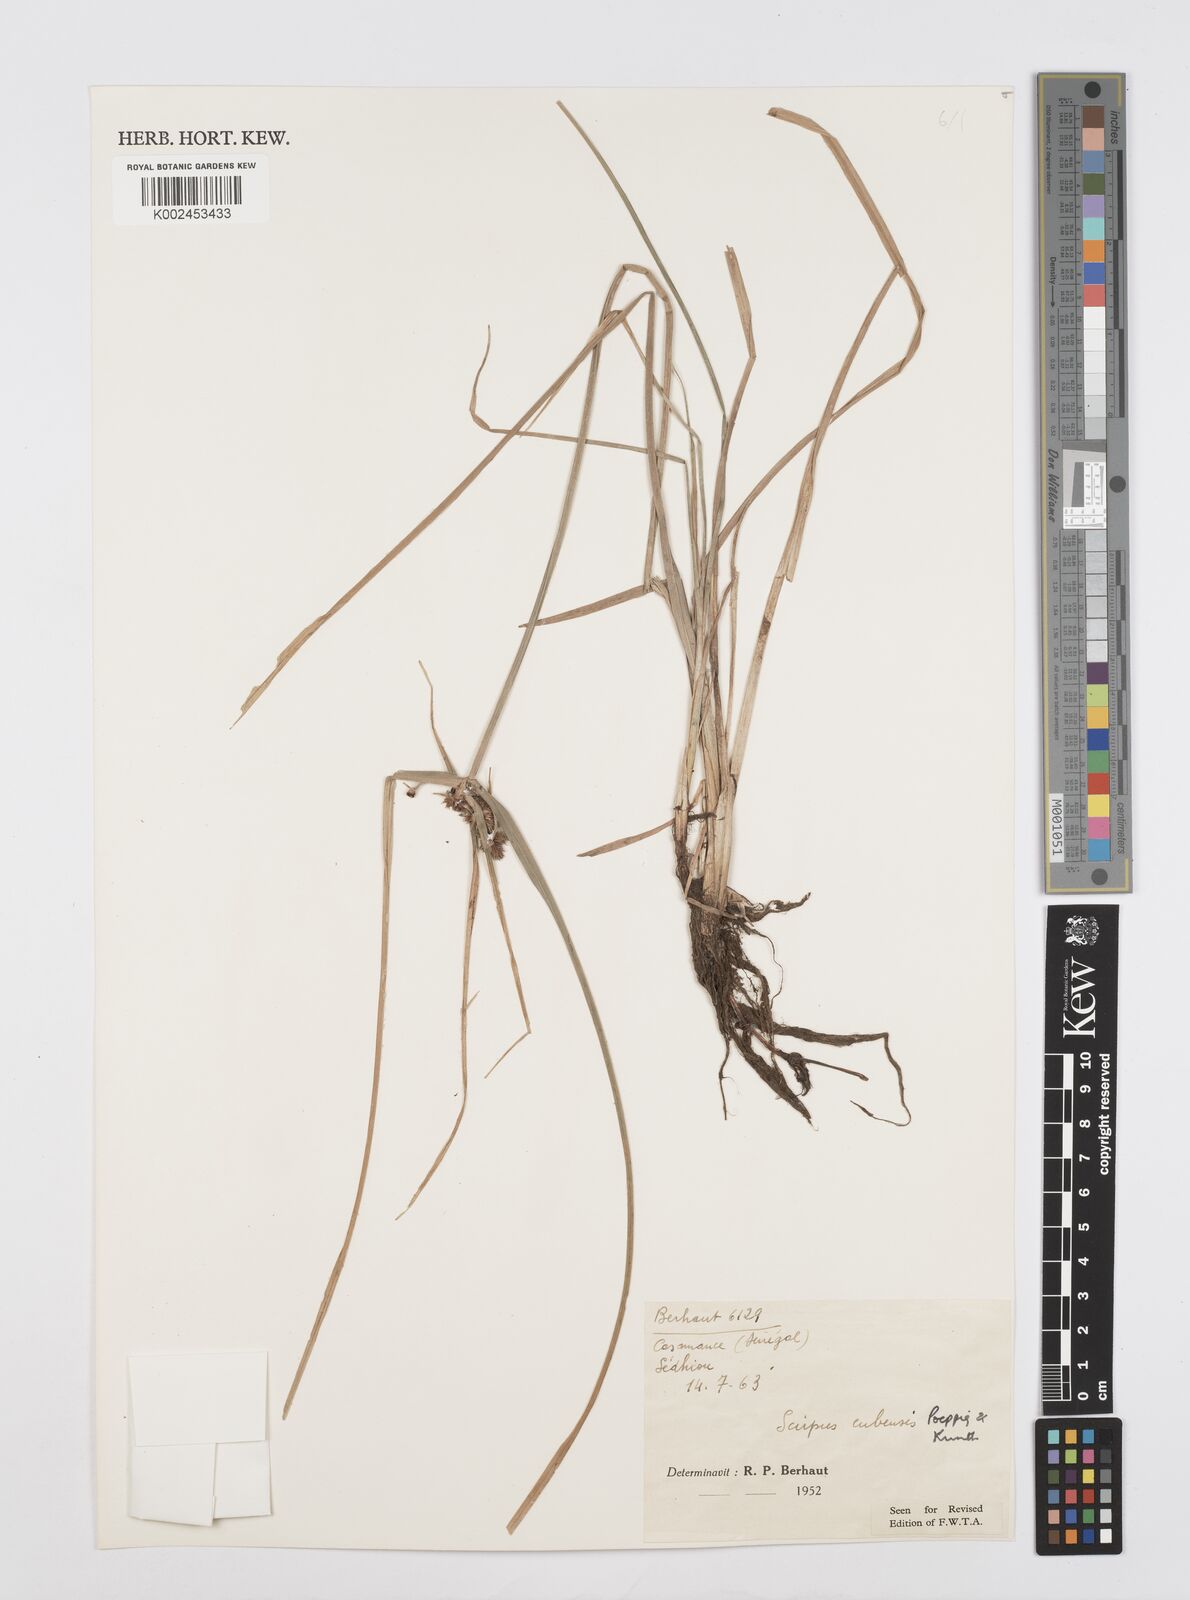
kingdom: Plantae
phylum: Tracheophyta
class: Liliopsida
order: Poales
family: Cyperaceae
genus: Cyperus
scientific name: Cyperus elegans
